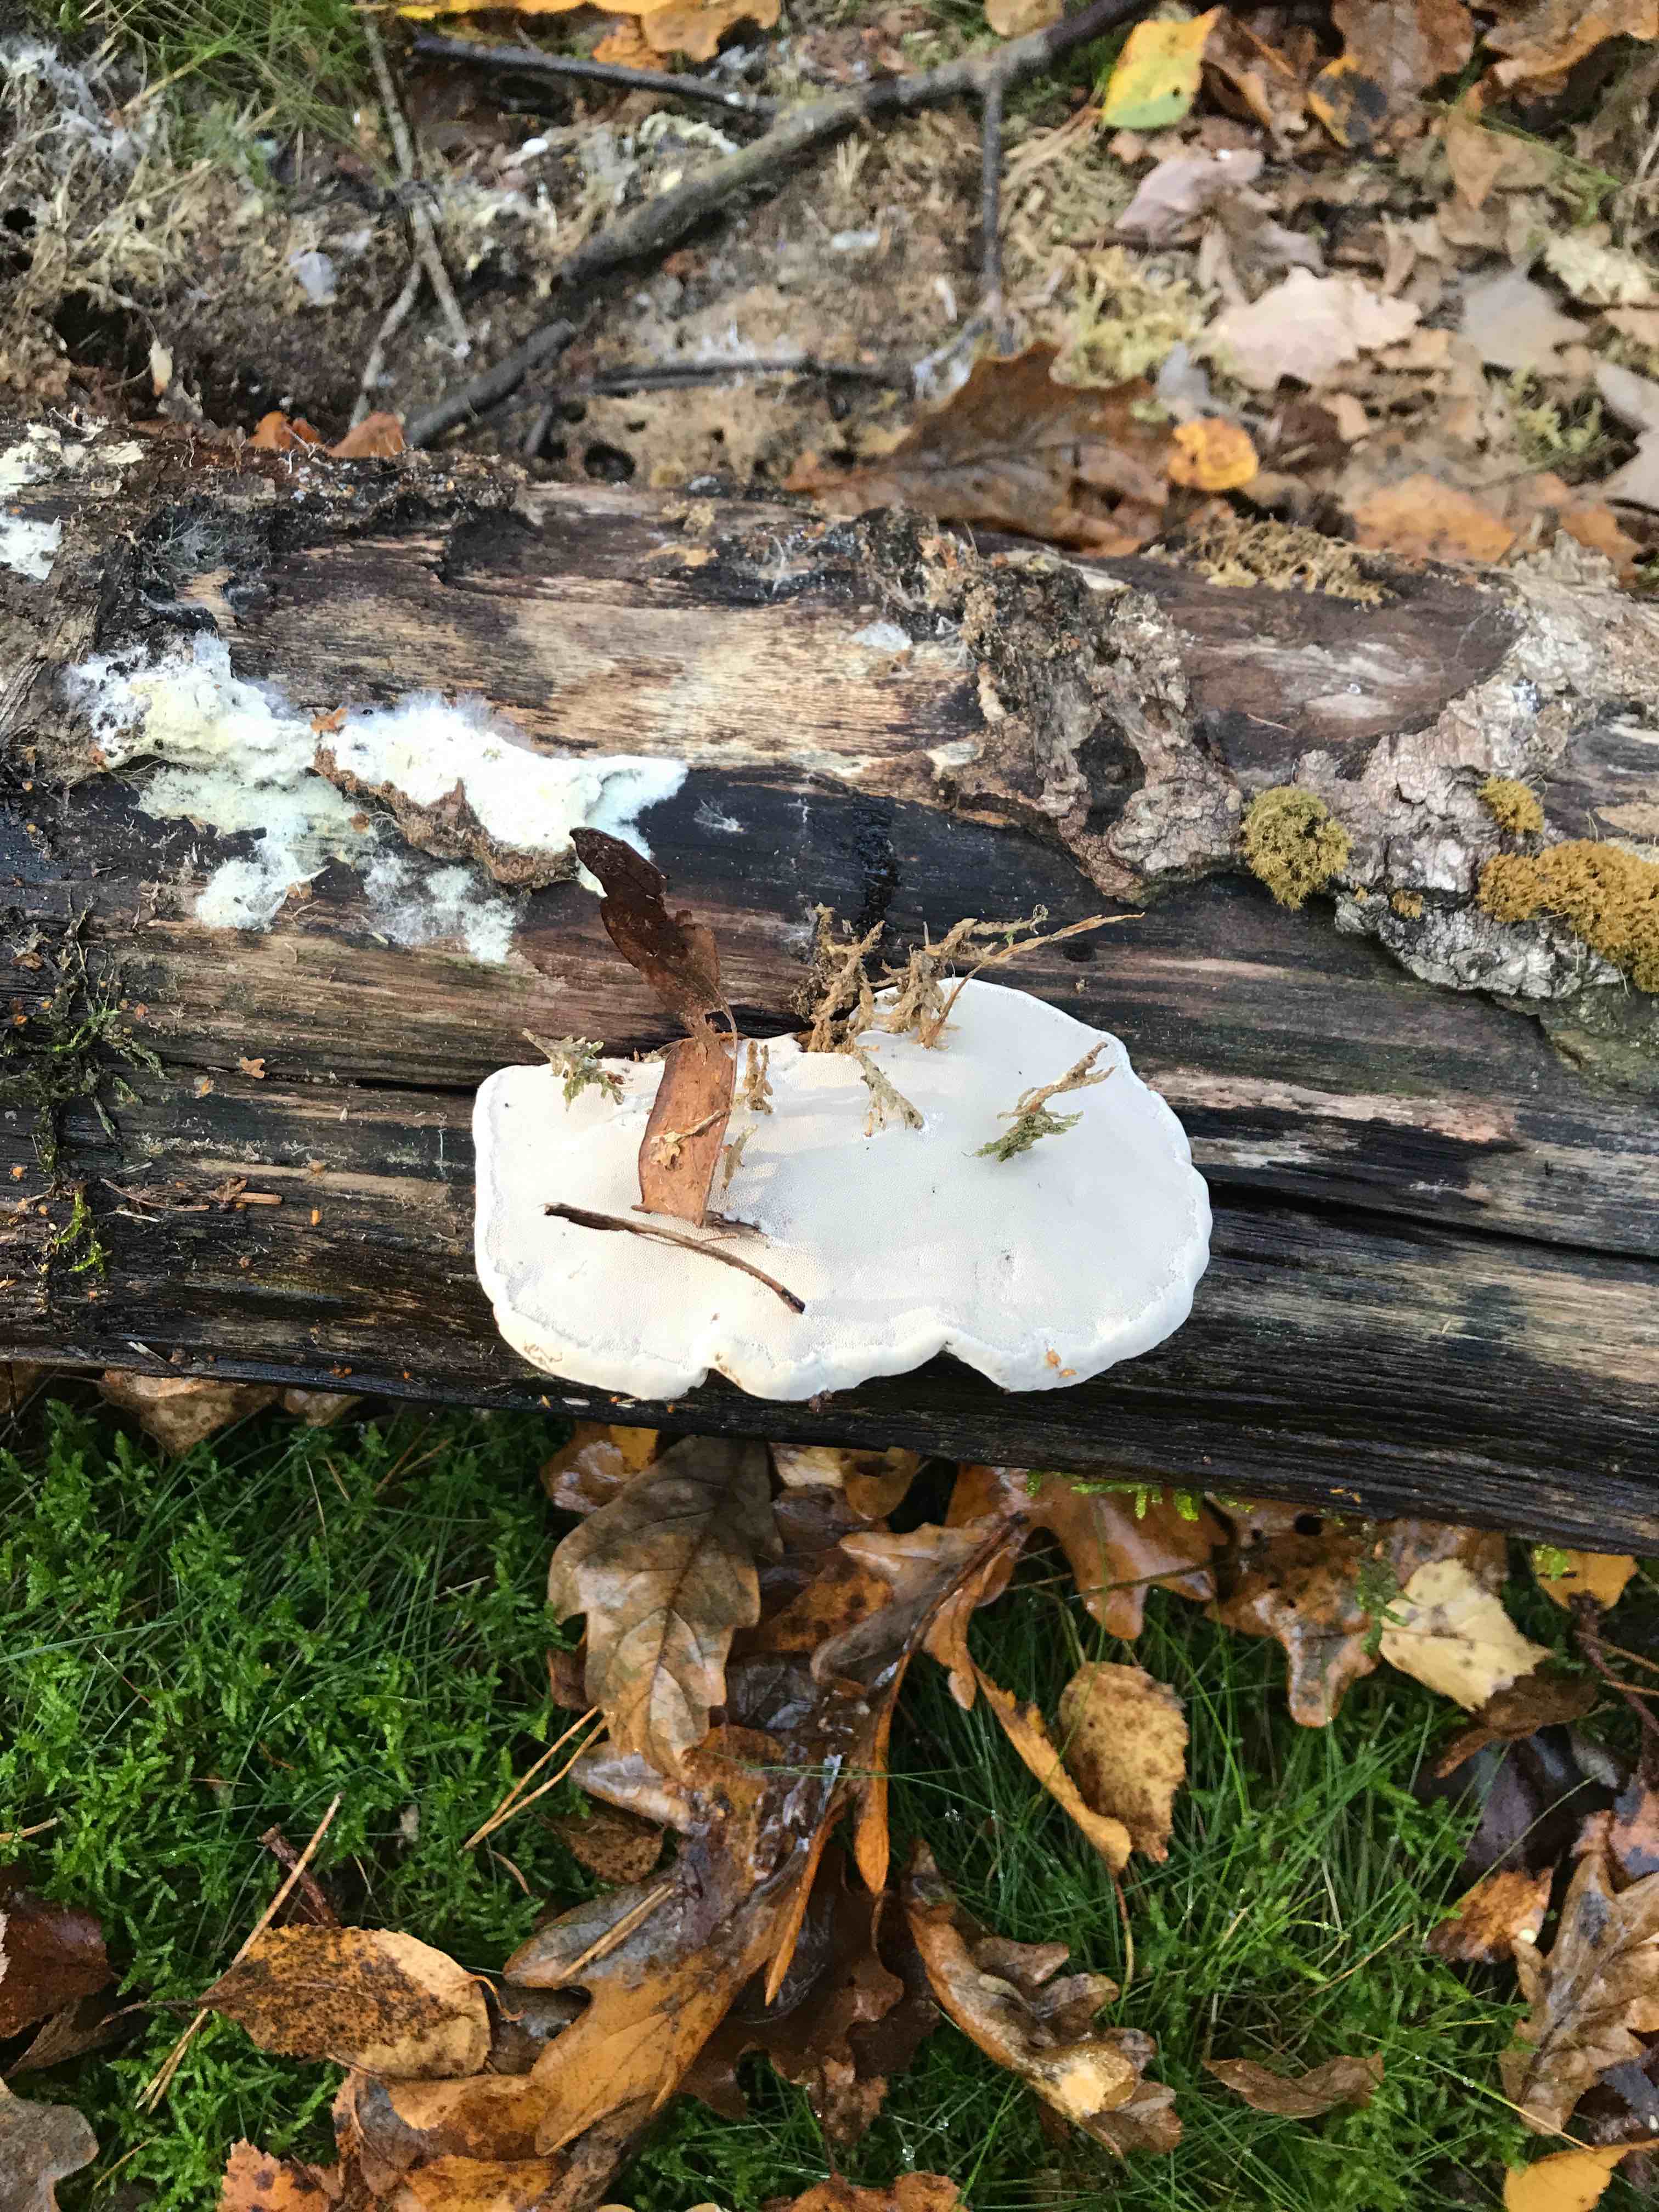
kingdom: Fungi
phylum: Basidiomycota
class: Agaricomycetes
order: Polyporales
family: Polyporaceae
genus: Fomes
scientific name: Fomes fomentarius
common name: tøndersvamp
